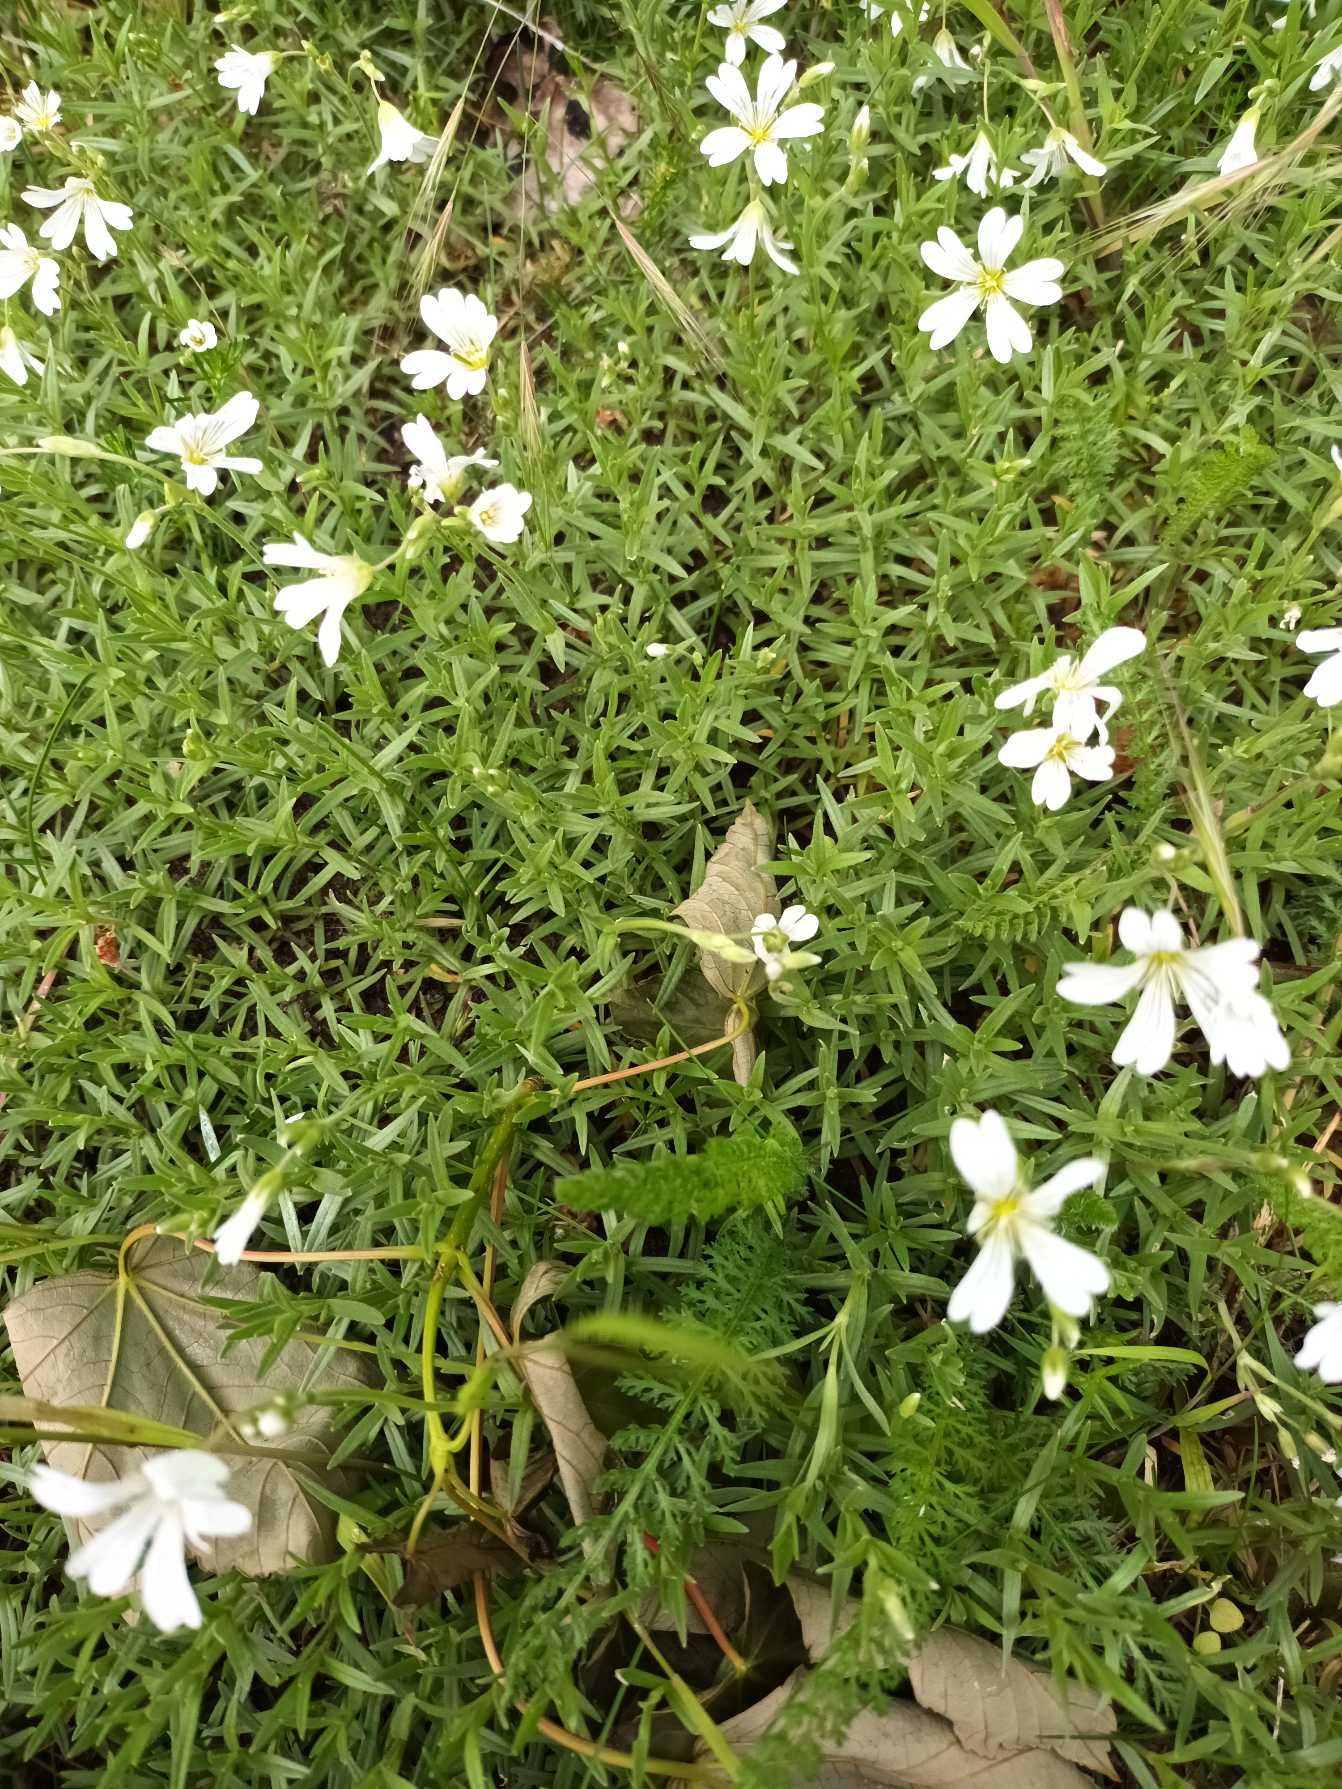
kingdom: Plantae
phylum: Tracheophyta
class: Magnoliopsida
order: Caryophyllales
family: Caryophyllaceae
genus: Cerastium
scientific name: Cerastium arvense
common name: Storblomstret hønsetarm
